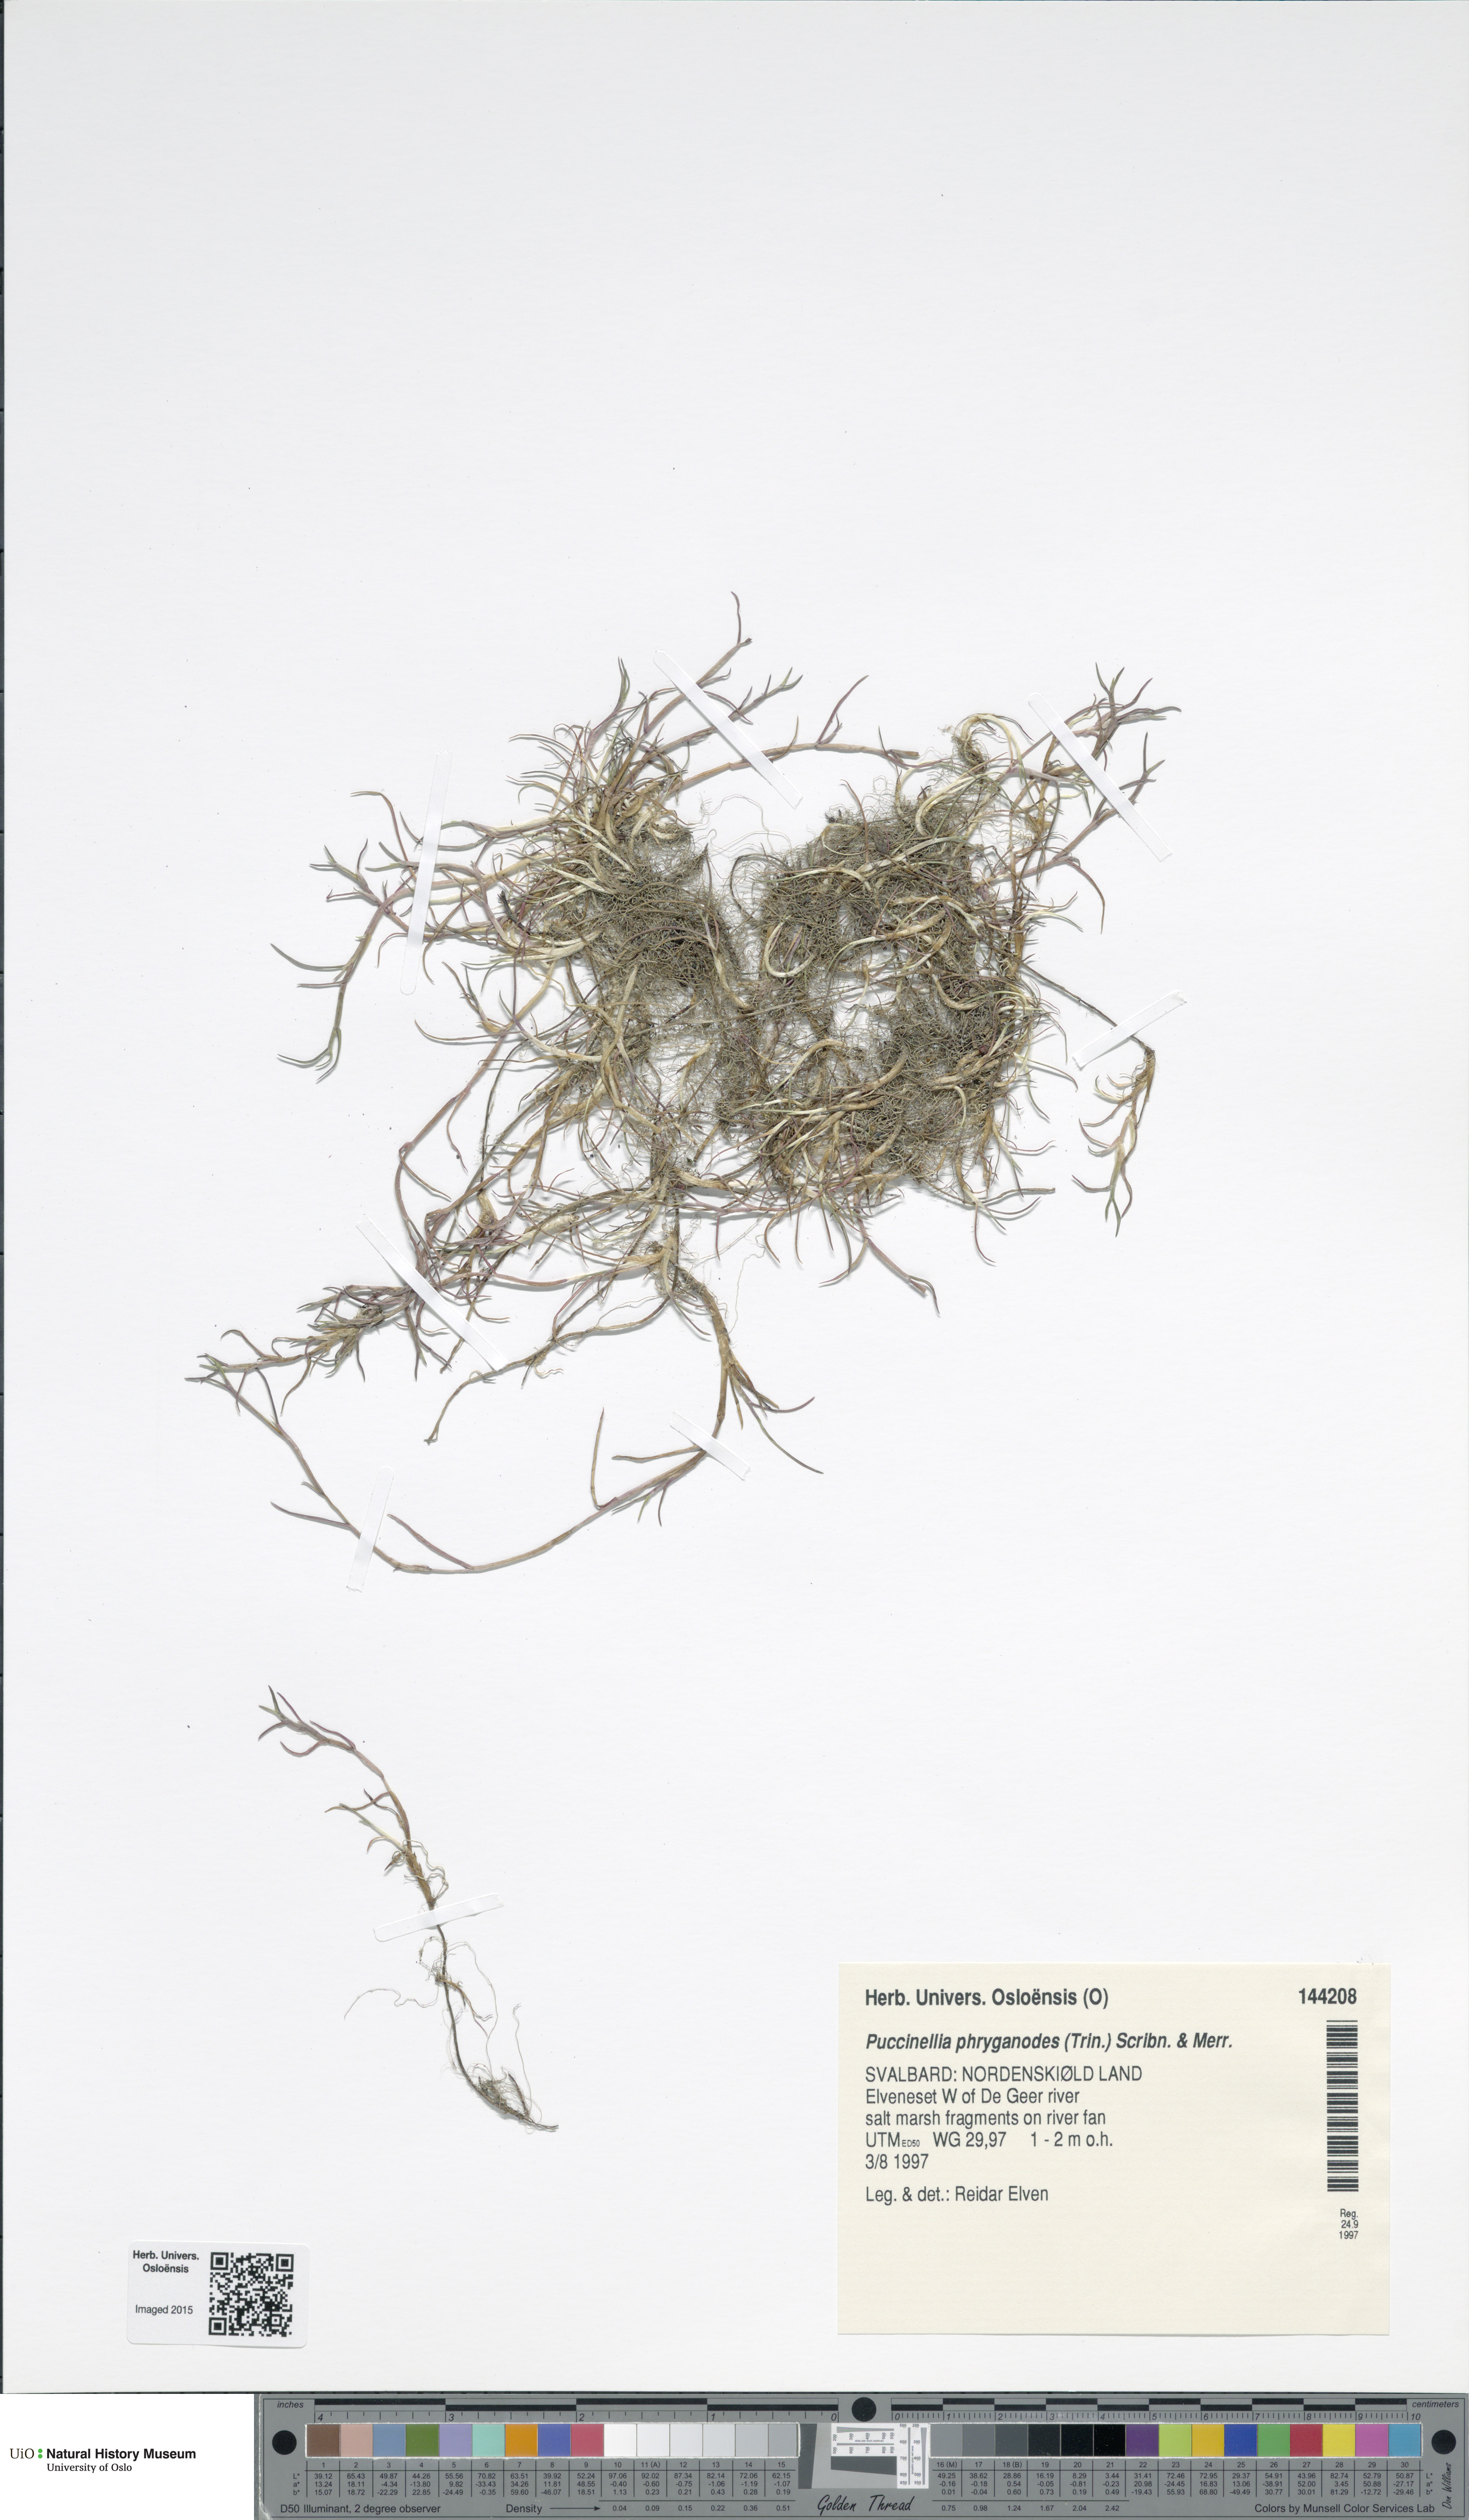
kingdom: Plantae
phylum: Tracheophyta
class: Liliopsida
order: Poales
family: Poaceae
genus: Puccinellia
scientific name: Puccinellia phryganodes
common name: Creeping alkaligrass
